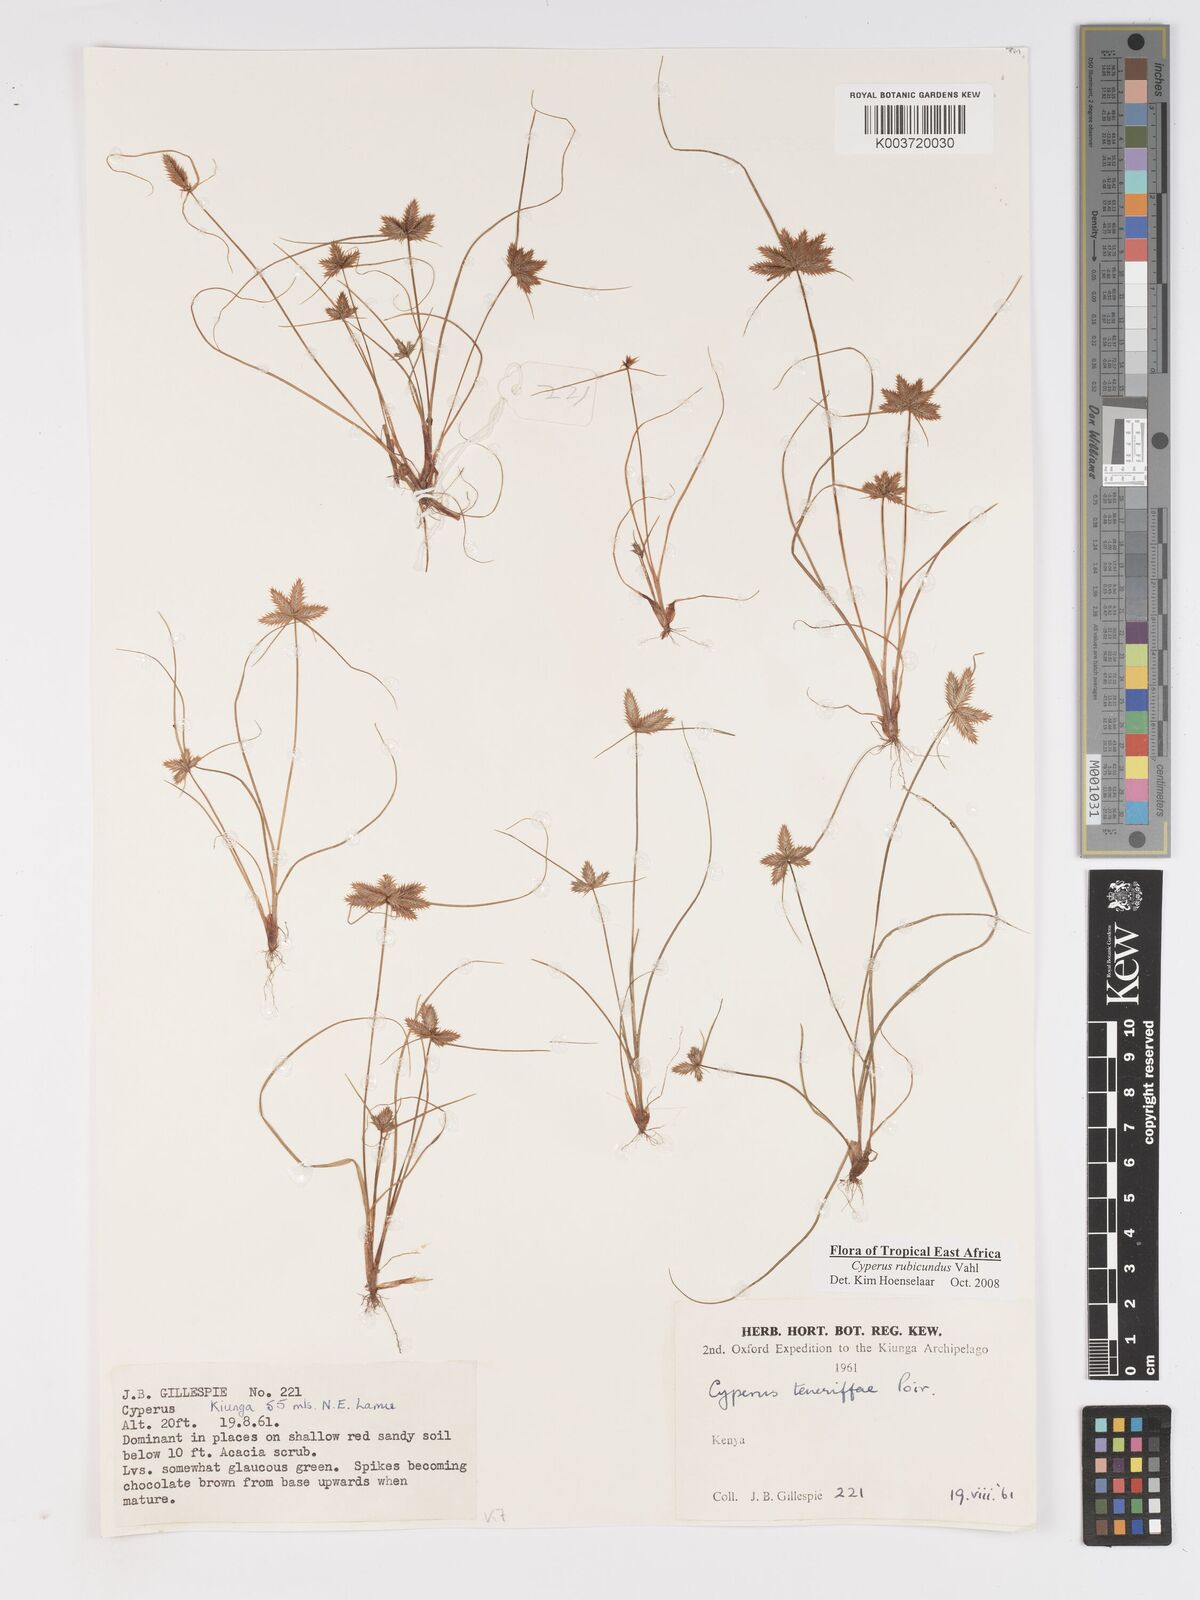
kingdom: Plantae
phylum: Tracheophyta
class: Liliopsida
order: Poales
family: Cyperaceae
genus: Cyperus
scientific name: Cyperus rubicundus
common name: Coco-grass
